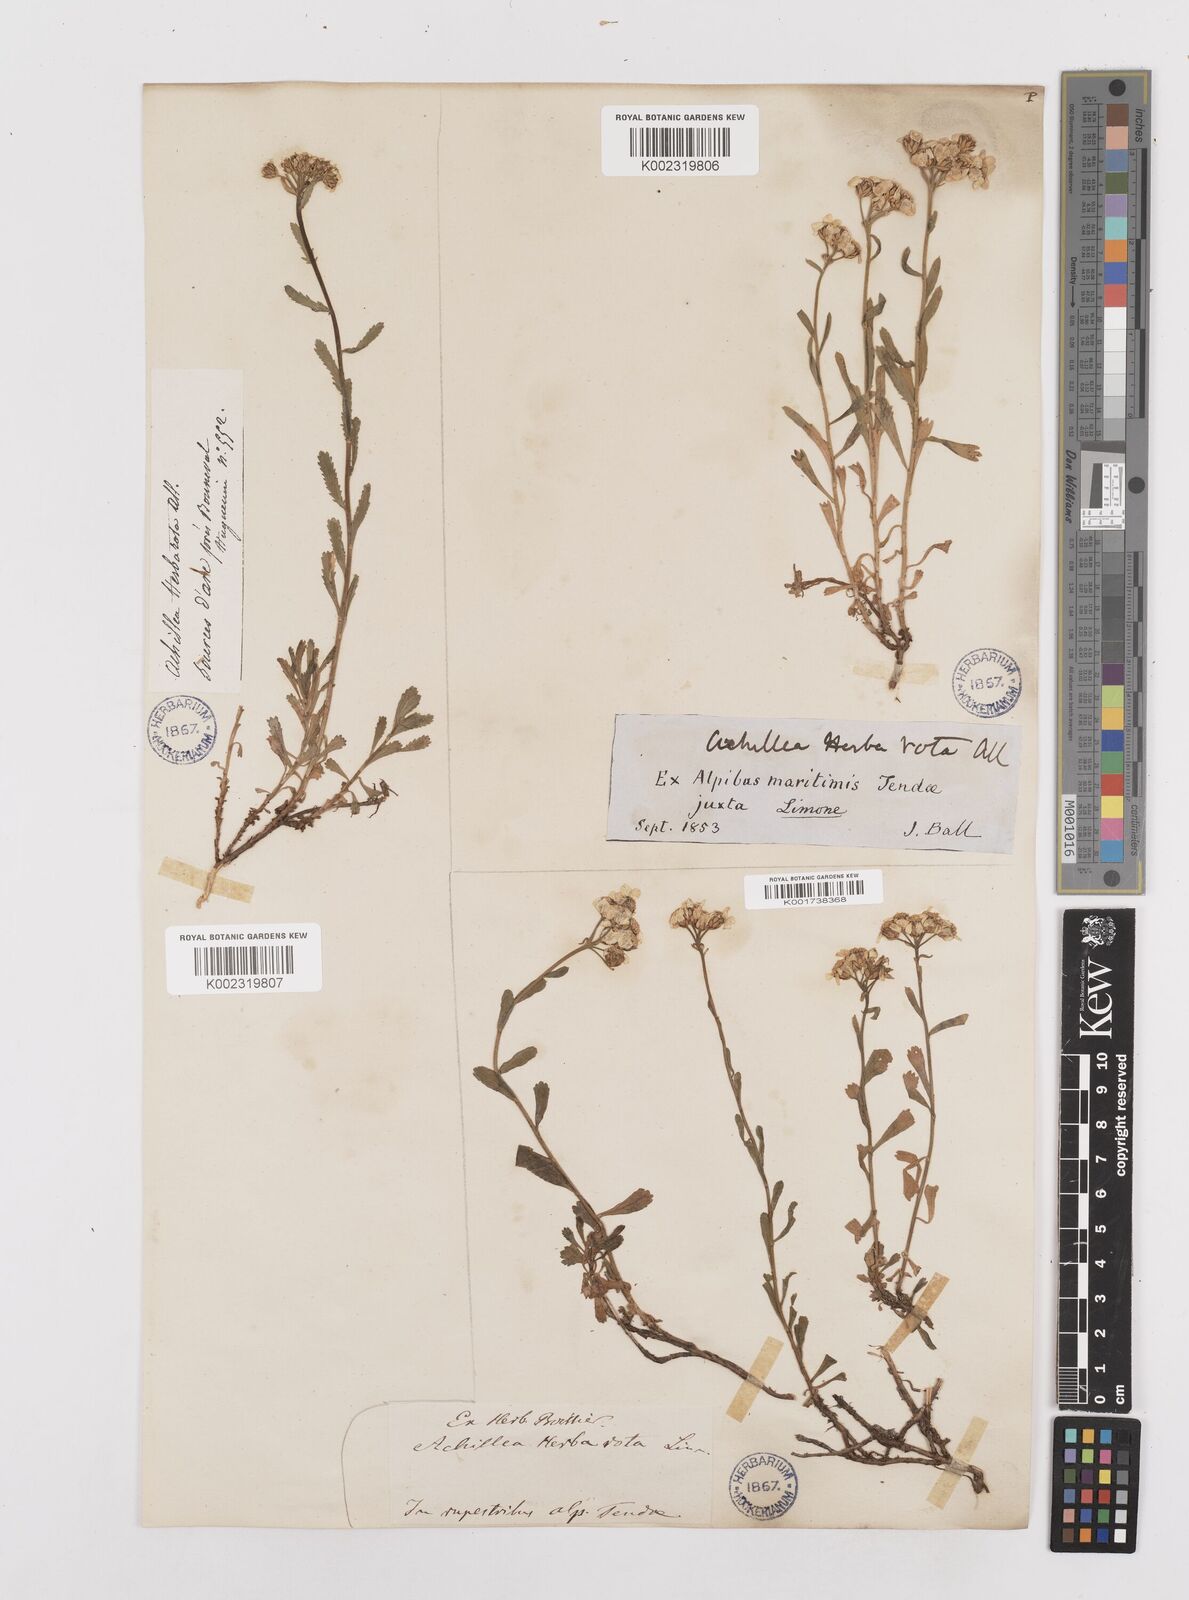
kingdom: Plantae
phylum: Tracheophyta
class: Magnoliopsida
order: Asterales
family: Asteraceae
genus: Achillea
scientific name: Achillea erba-rotta
